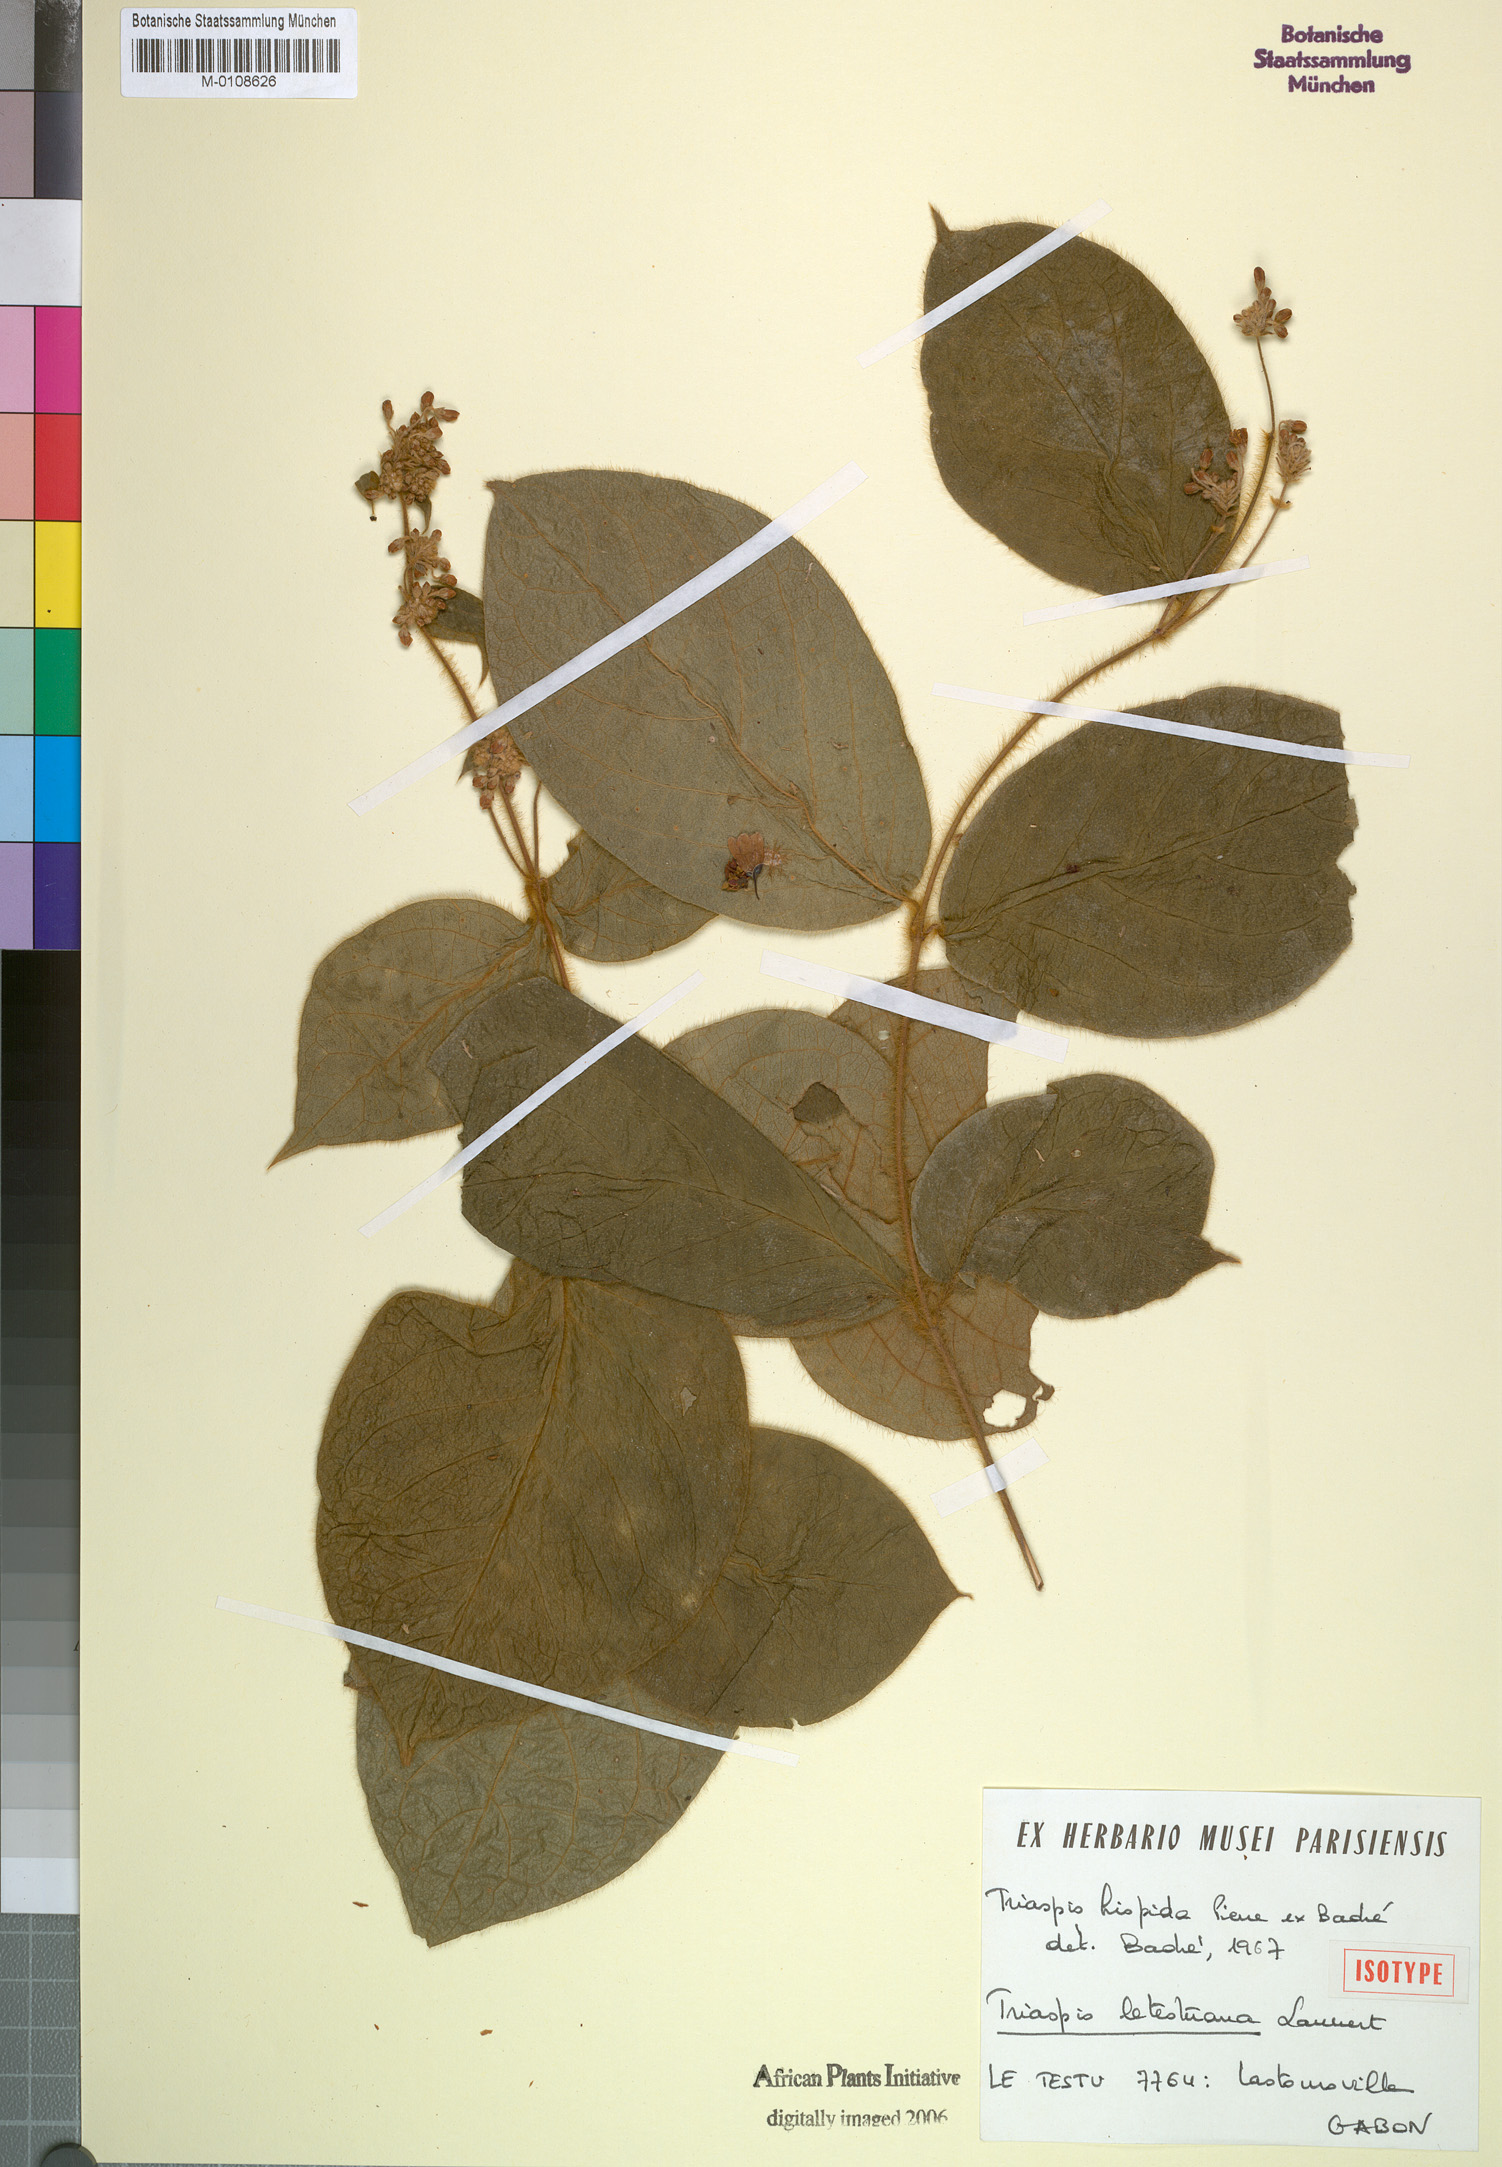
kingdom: Plantae
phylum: Tracheophyta
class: Magnoliopsida
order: Malpighiales
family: Malpighiaceae
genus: Triaspis
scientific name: Triaspis letestuana
